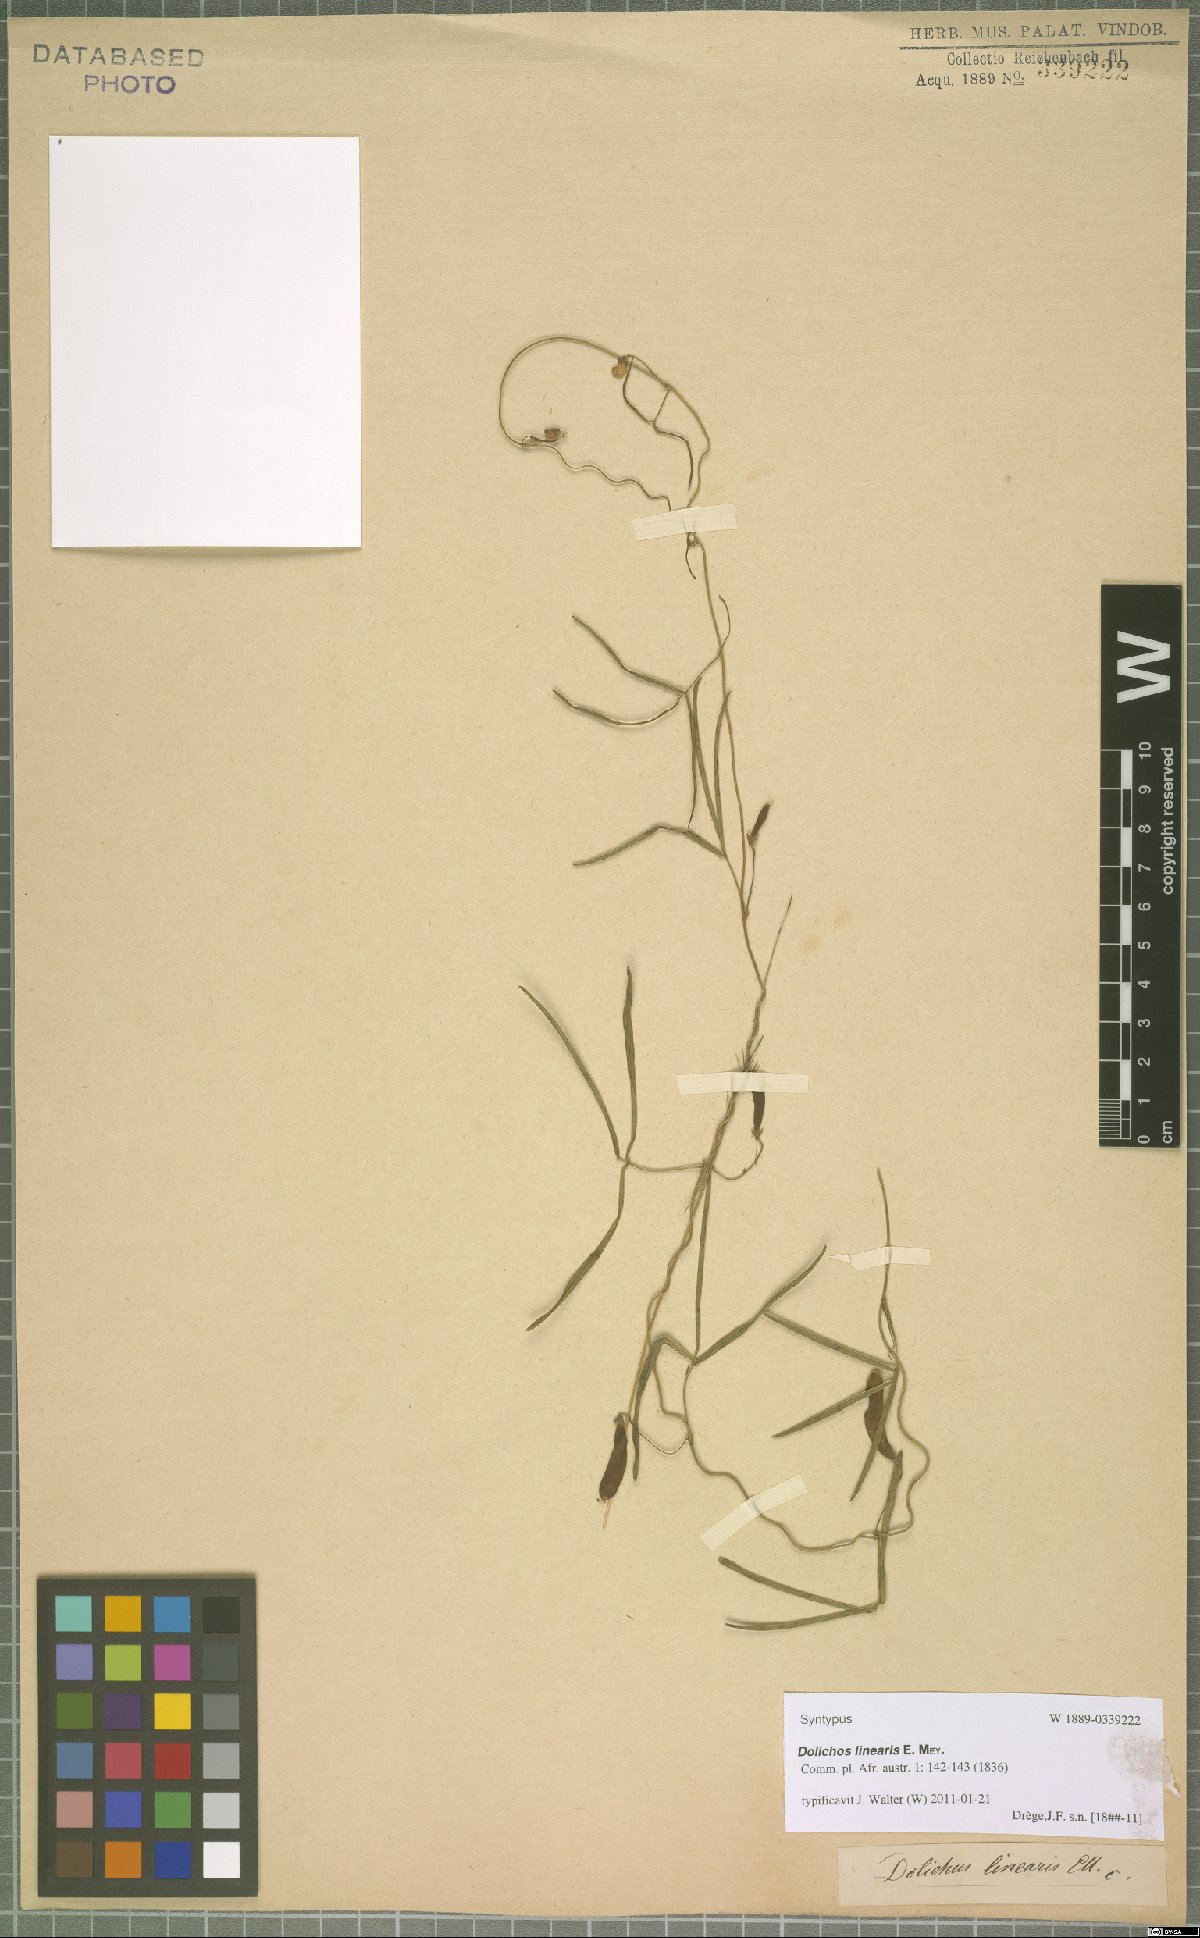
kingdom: Plantae
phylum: Tracheophyta
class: Magnoliopsida
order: Fabales
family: Fabaceae
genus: Dolichos
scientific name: Dolichos linearis
